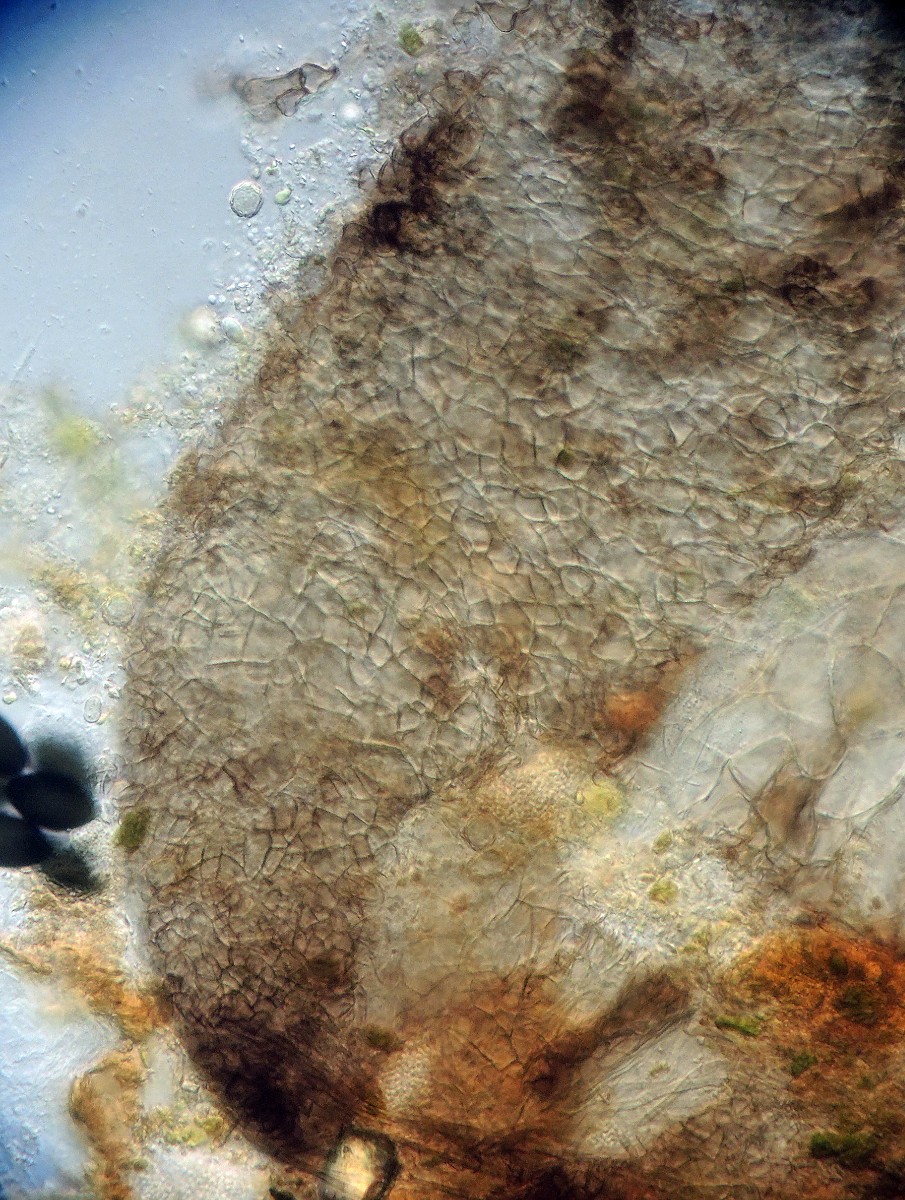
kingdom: Fungi
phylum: Ascomycota
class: Sordariomycetes
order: Sordariales
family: Neoschizotheciaceae
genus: Neoschizothecium
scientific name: Neoschizothecium conicum
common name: kegle-kernesvamp
